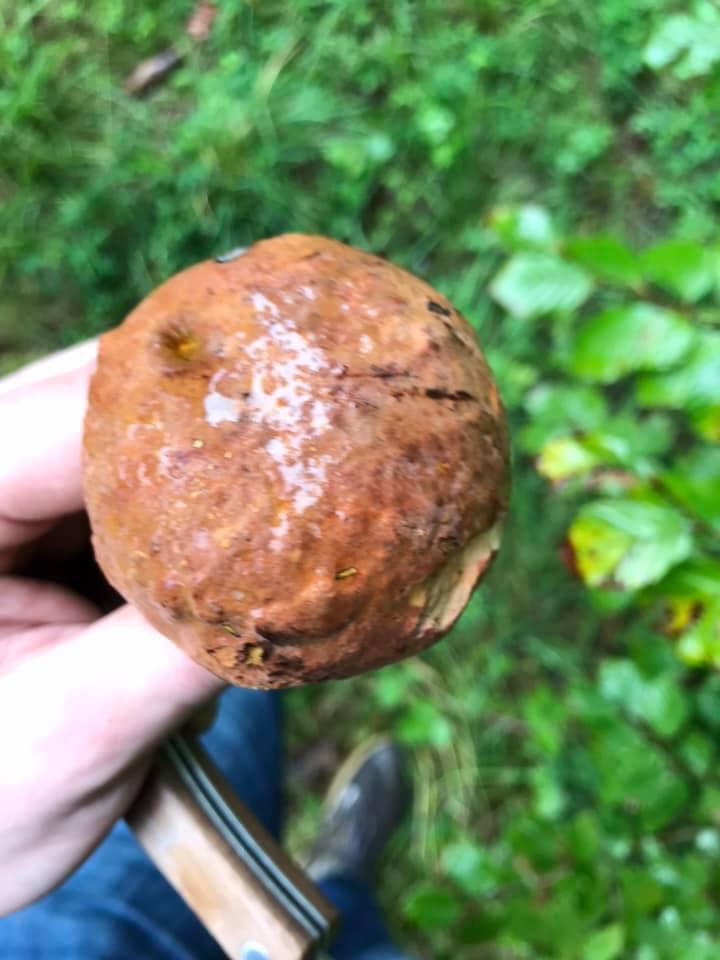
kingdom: Fungi
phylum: Basidiomycota
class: Agaricomycetes
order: Boletales
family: Boletaceae
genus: Suillellus
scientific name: Suillellus queletii
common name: glatstokket indigorørhat
